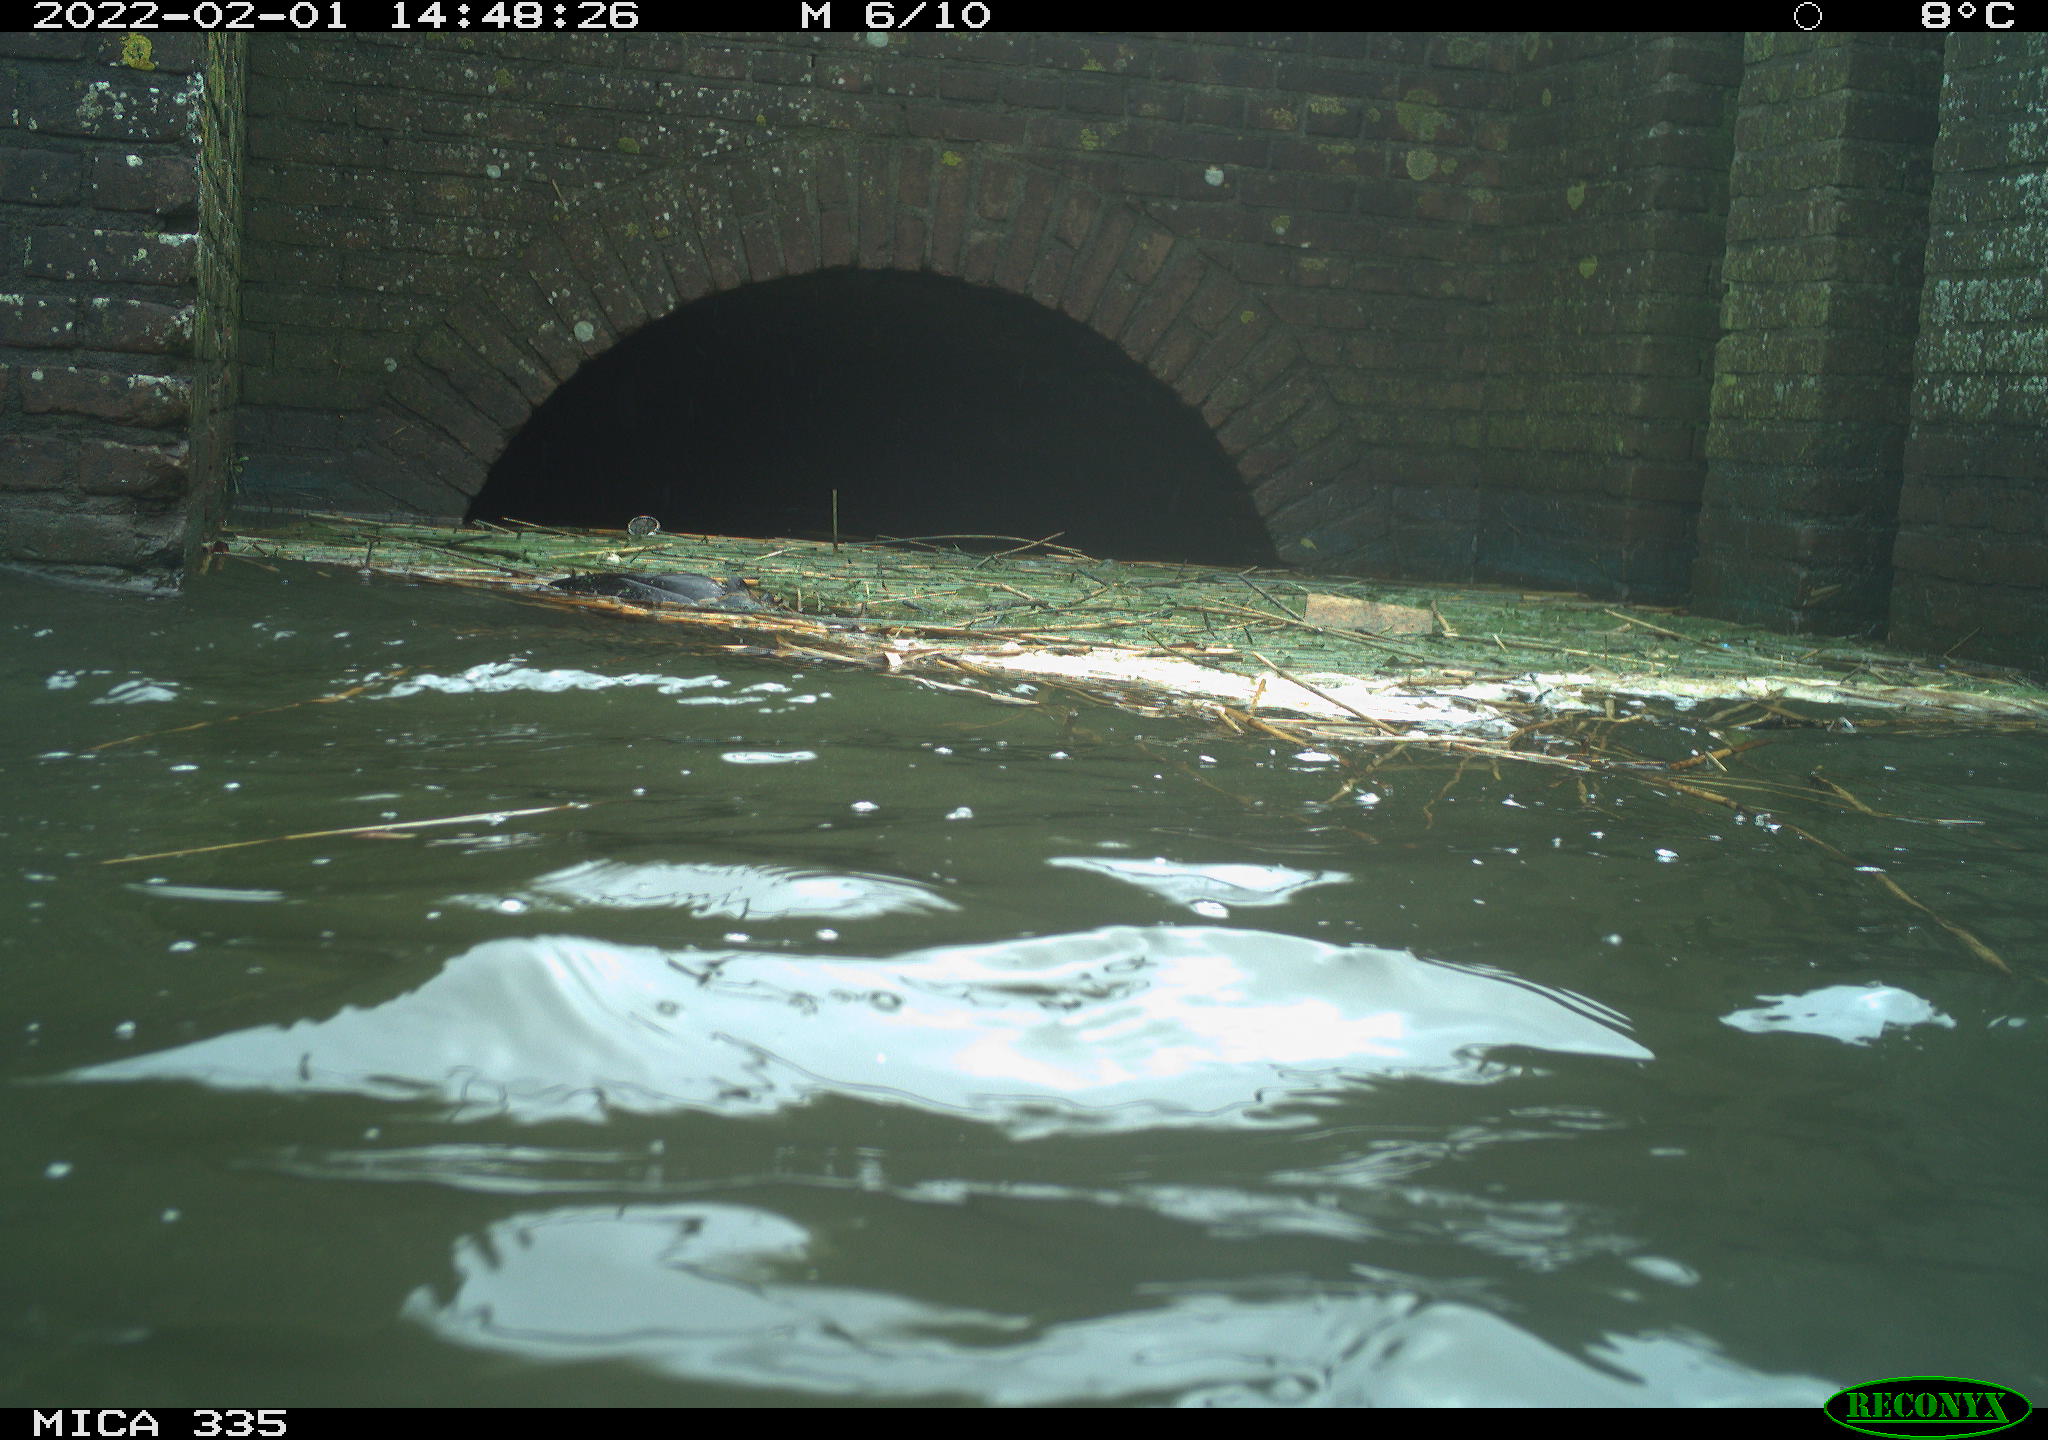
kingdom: Animalia
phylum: Chordata
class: Aves
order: Podicipediformes
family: Podicipedidae
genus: Podiceps
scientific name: Podiceps cristatus
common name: Great crested grebe
